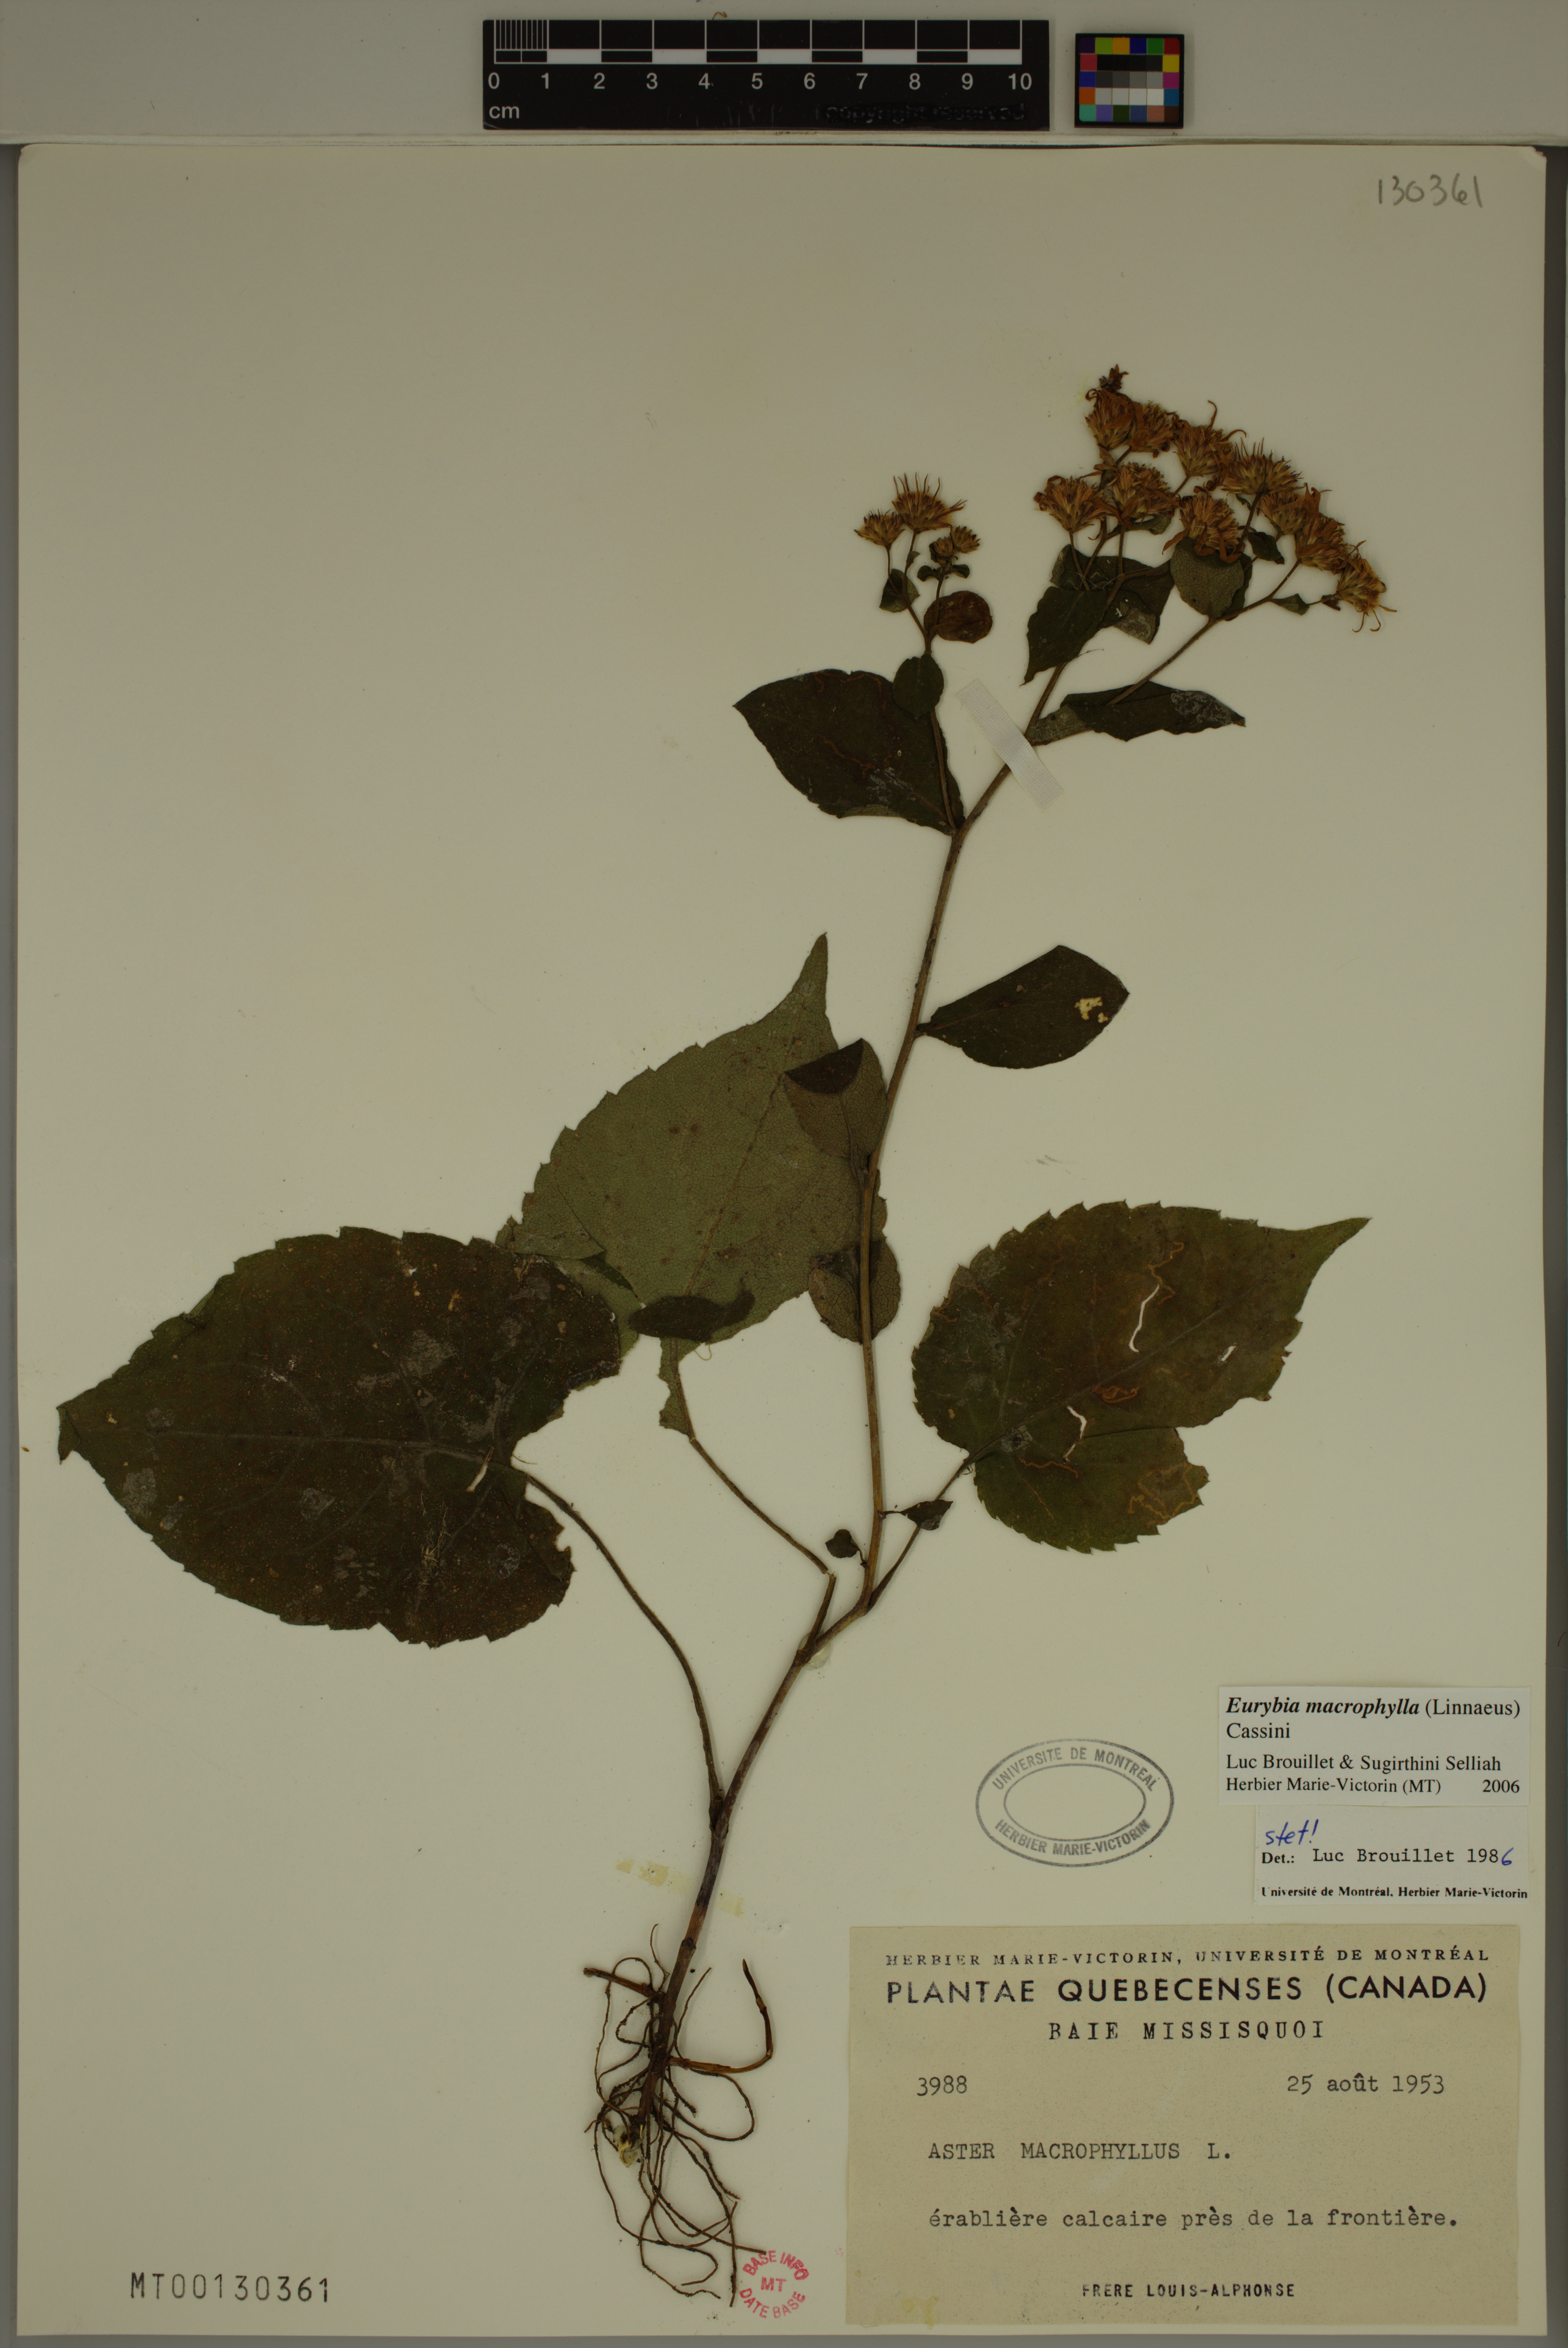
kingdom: Plantae
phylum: Tracheophyta
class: Magnoliopsida
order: Asterales
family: Asteraceae
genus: Eurybia
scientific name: Eurybia macrophylla
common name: Big-leaved aster
